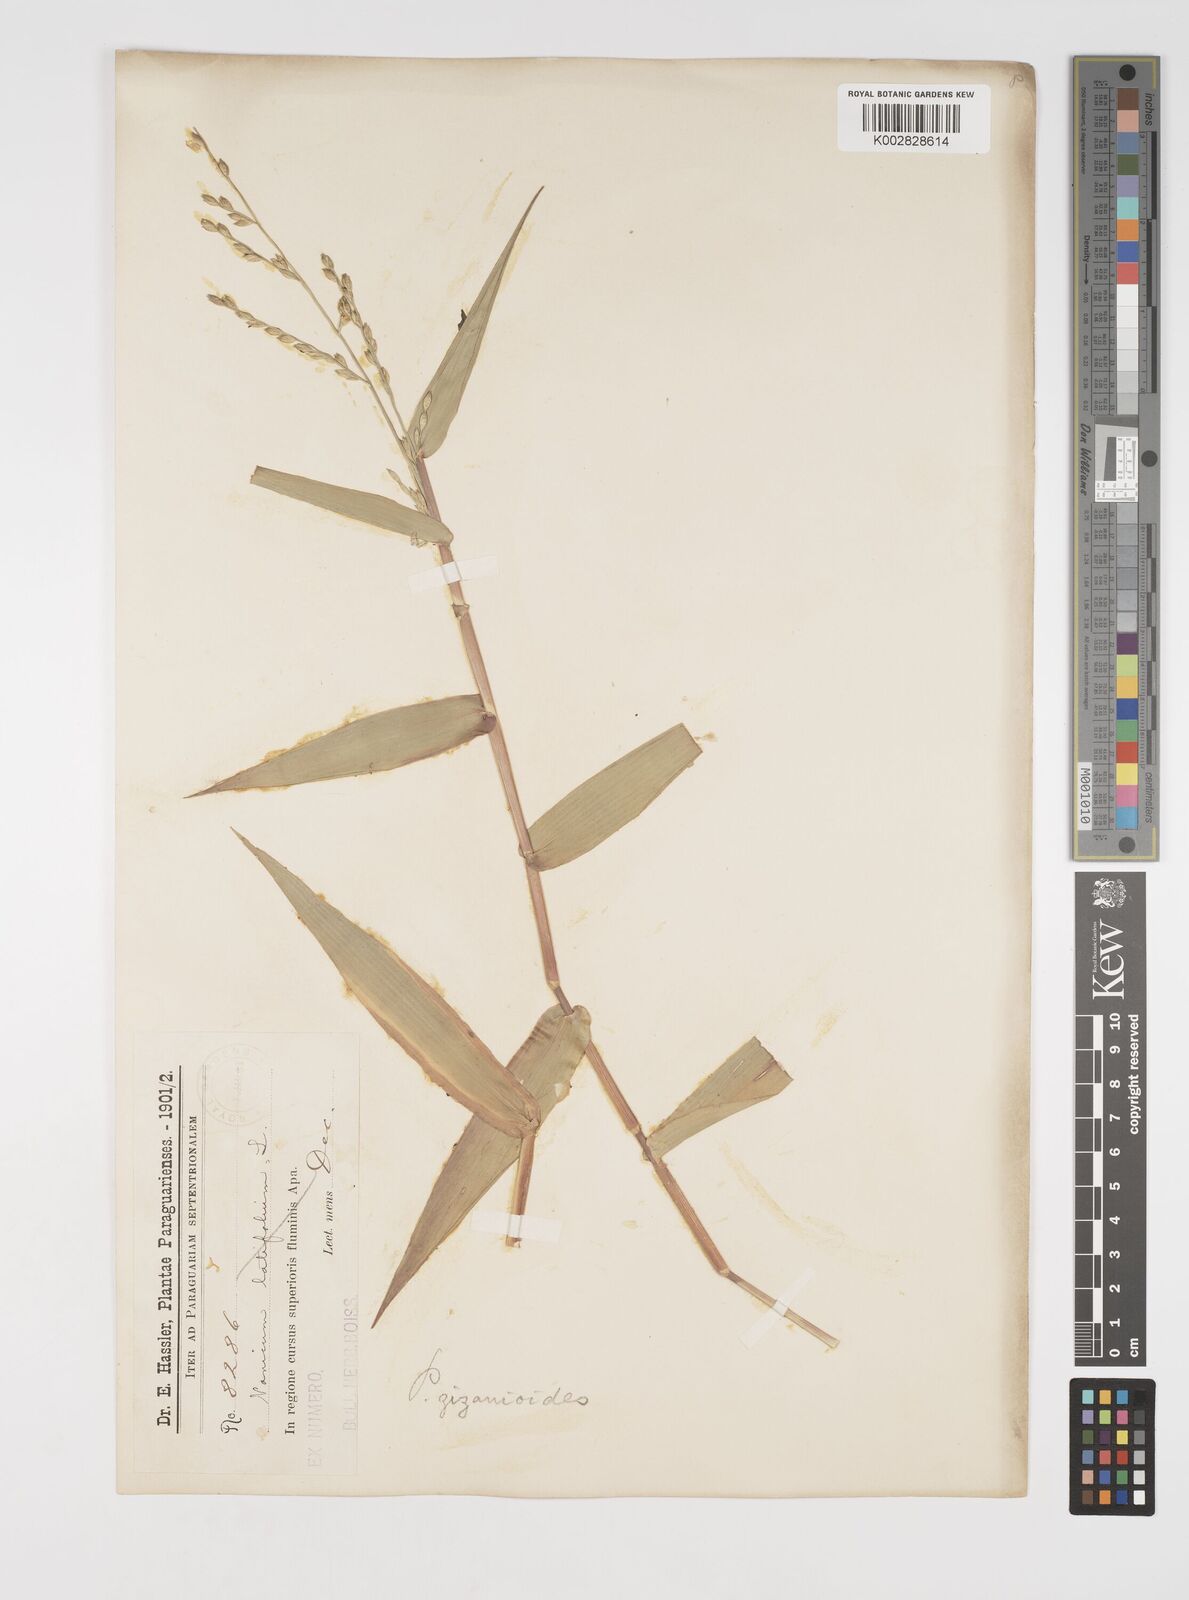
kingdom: Plantae
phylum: Tracheophyta
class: Liliopsida
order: Poales
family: Poaceae
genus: Acroceras
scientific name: Acroceras zizanioides
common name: Oat grass
